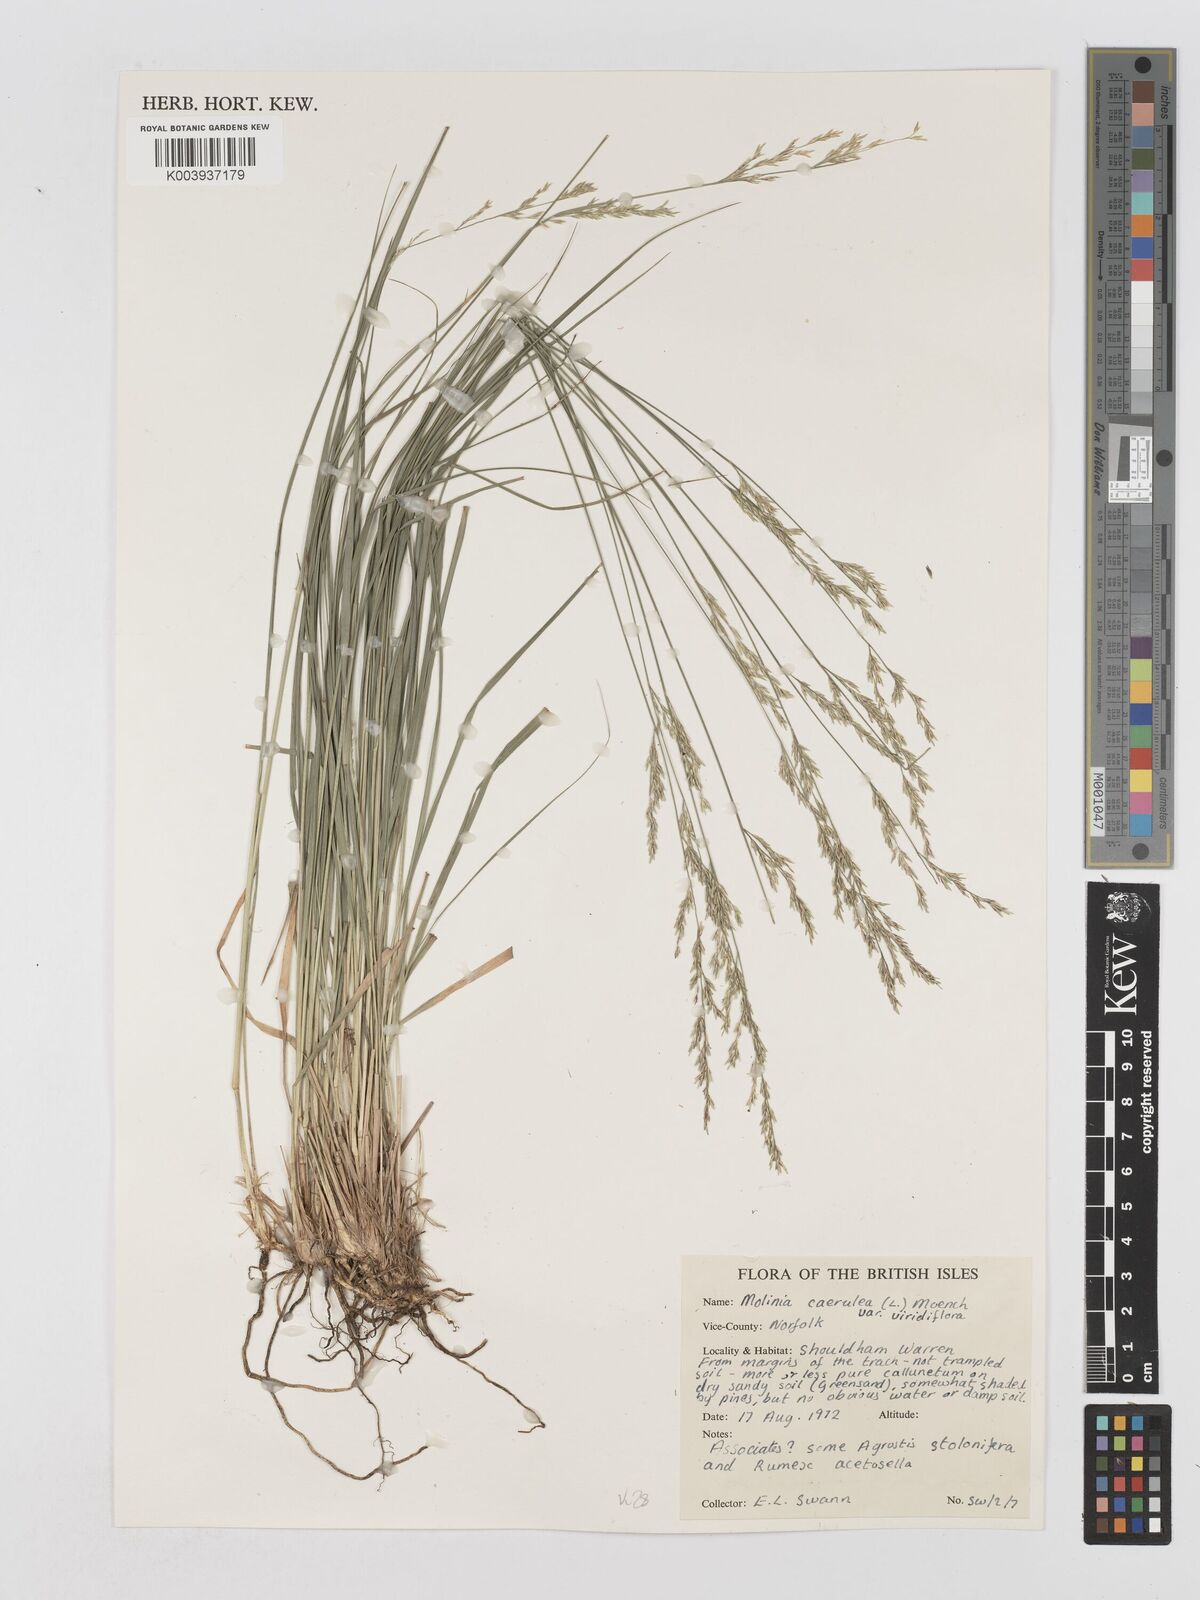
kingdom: Plantae
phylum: Tracheophyta
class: Liliopsida
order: Poales
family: Poaceae
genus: Molinia
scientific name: Molinia caerulea
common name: Purple moor-grass
